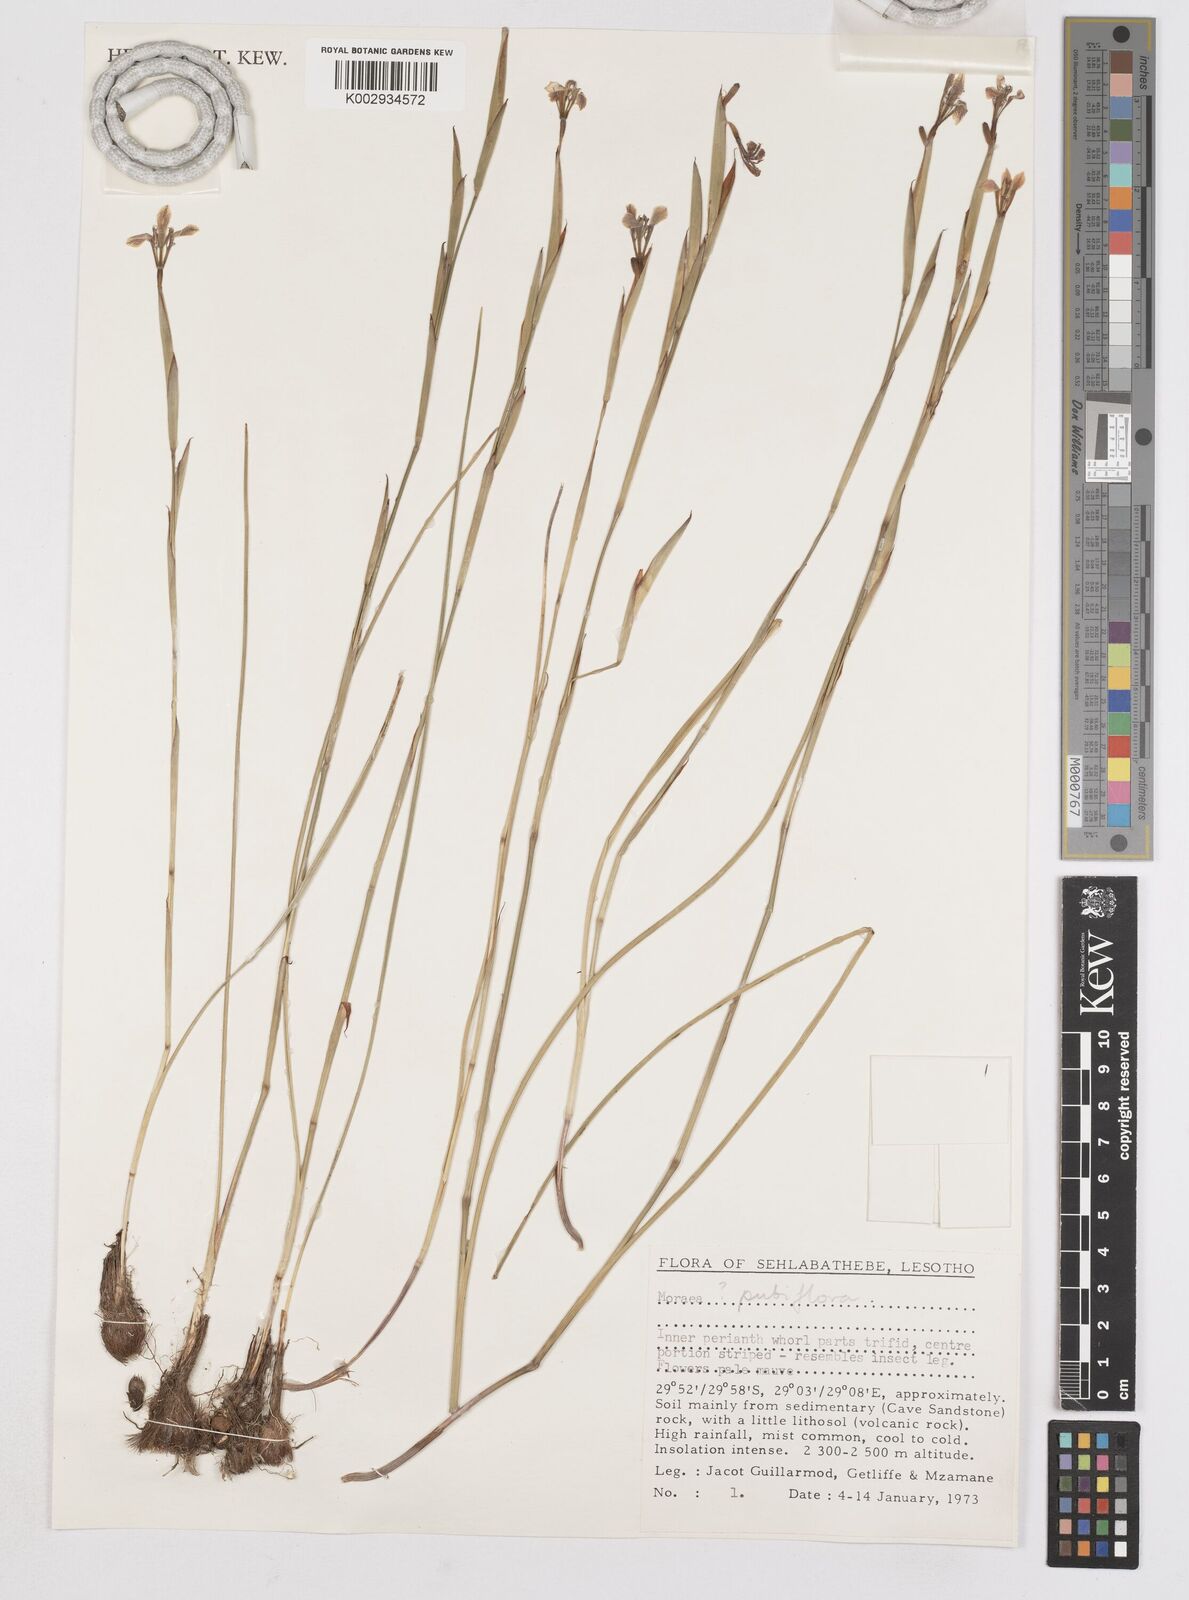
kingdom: Plantae
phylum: Tracheophyta
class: Liliopsida
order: Asparagales
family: Iridaceae
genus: Moraea
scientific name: Moraea pubiflora
